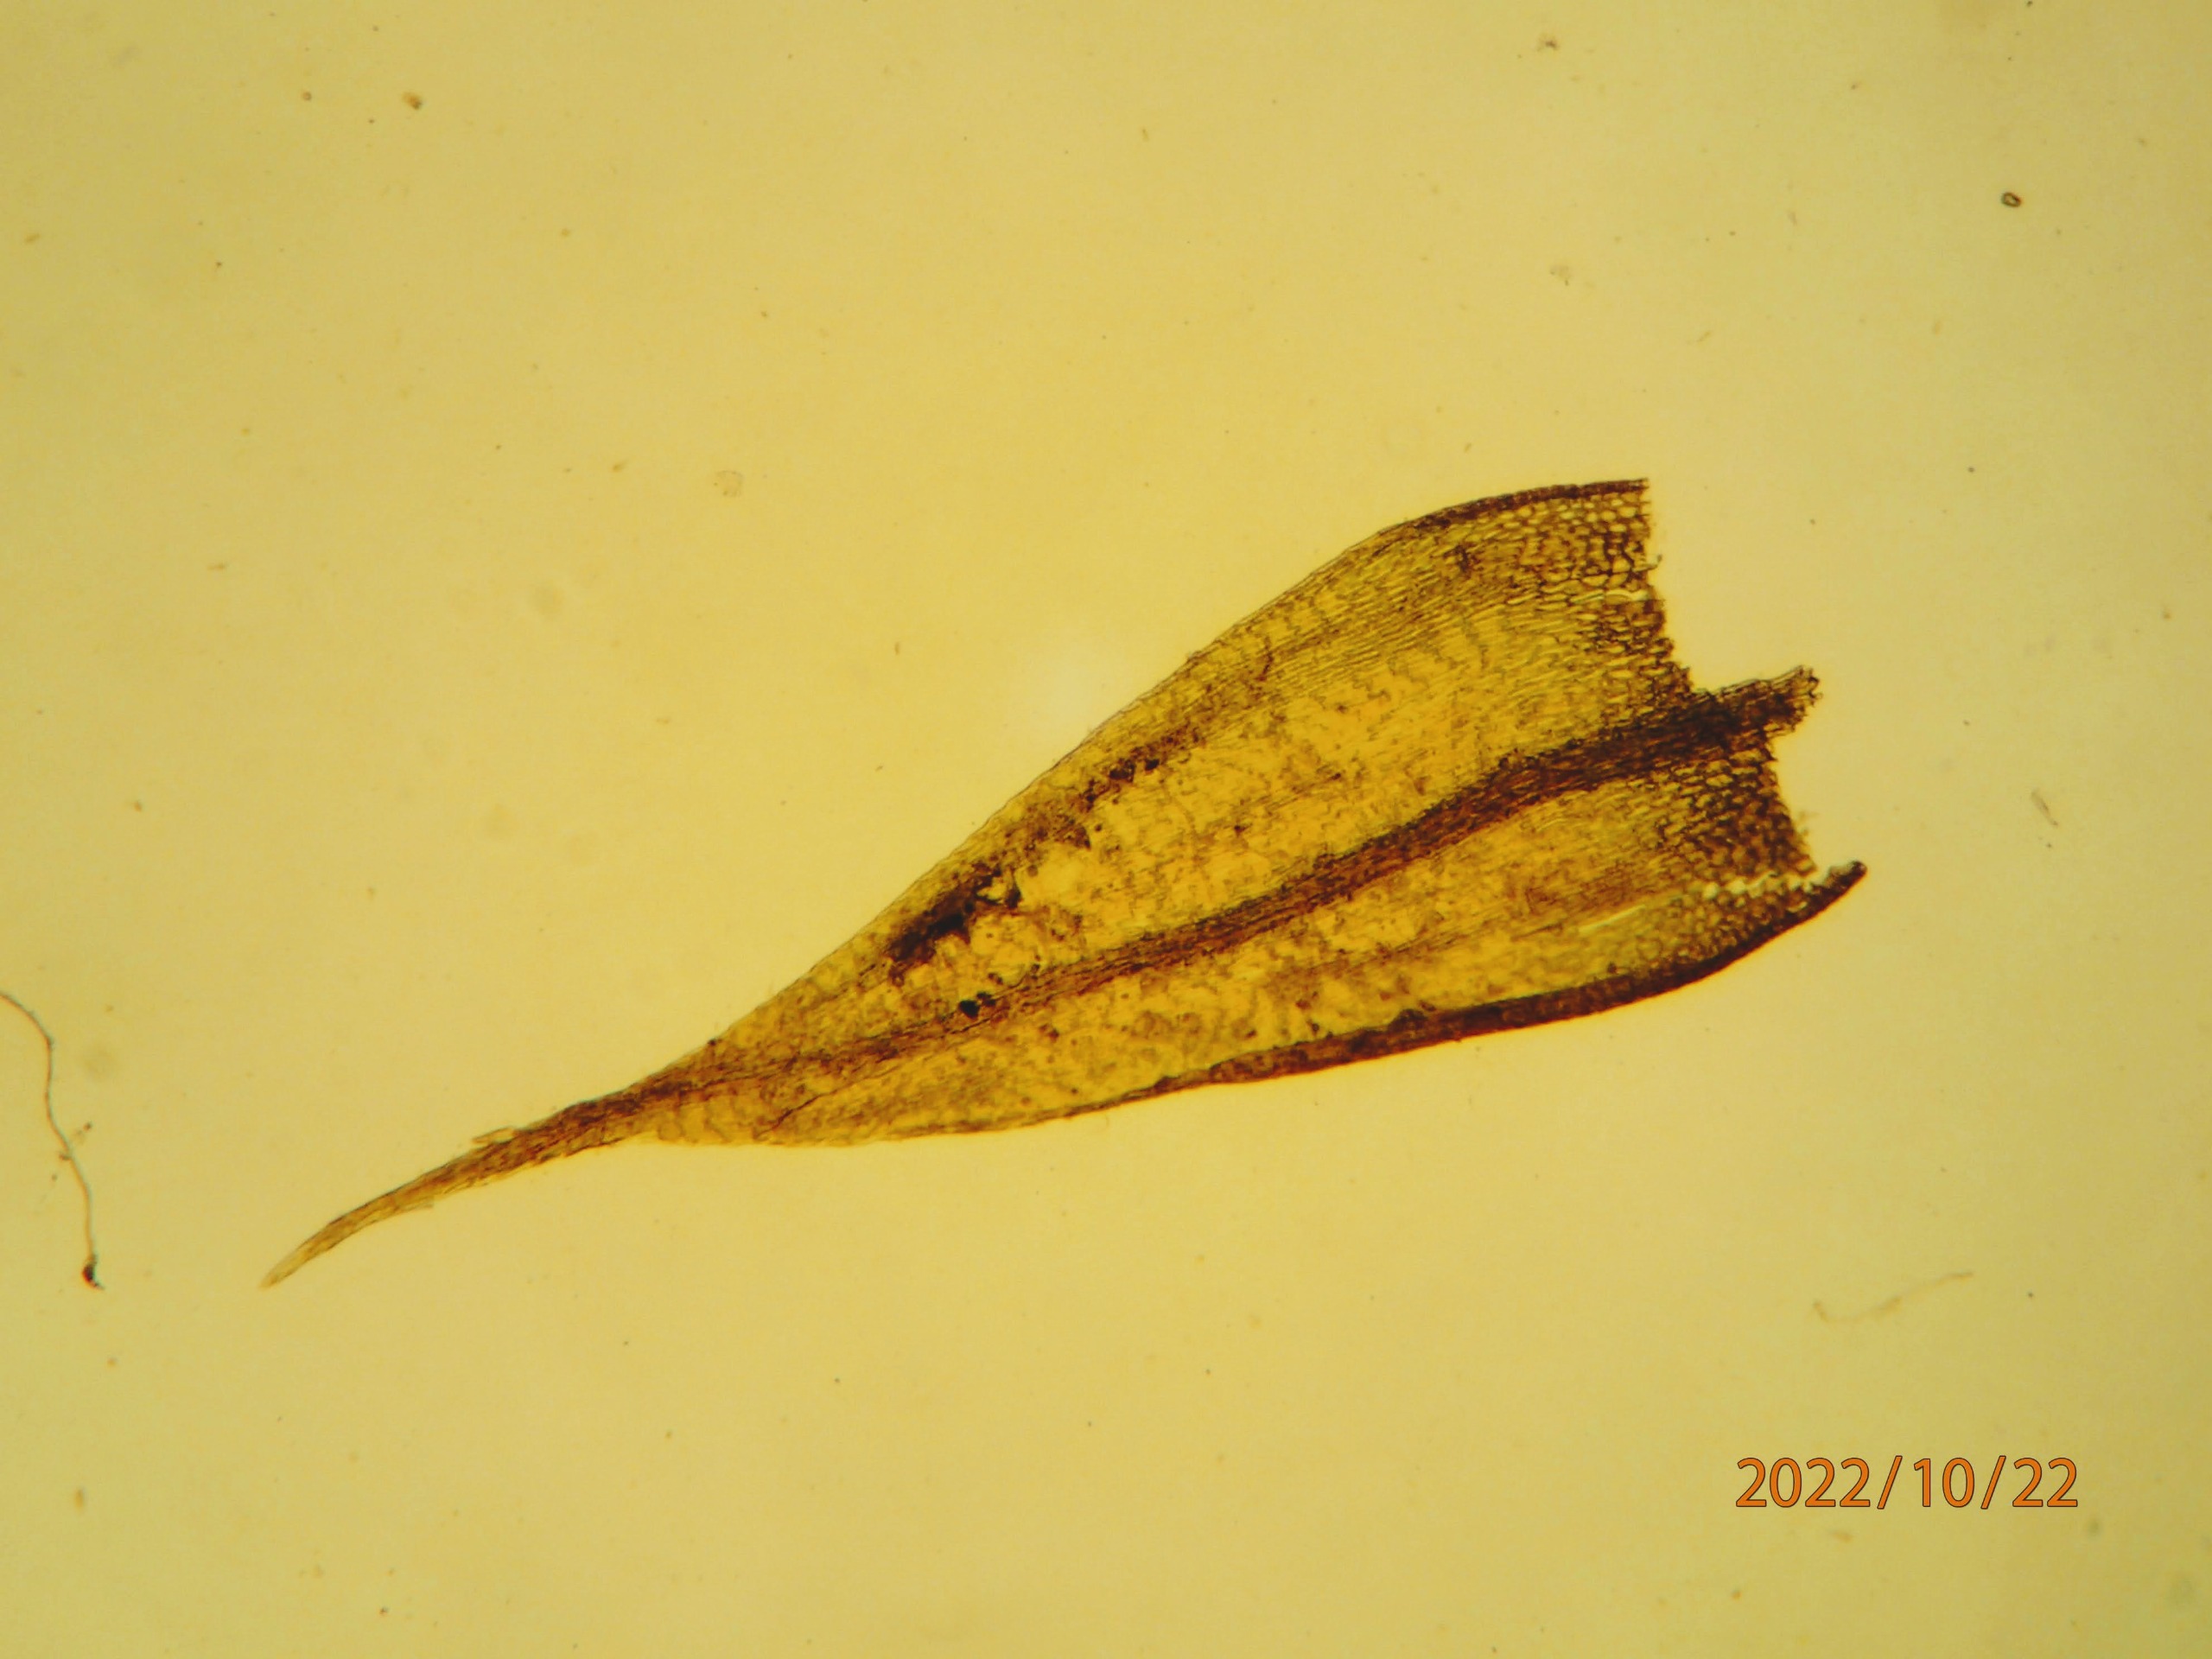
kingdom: Plantae
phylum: Bryophyta
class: Bryopsida
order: Hypnales
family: Brachytheciaceae
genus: Sciuro-hypnum
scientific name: Sciuro-hypnum populeum
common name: Park-kortkapsel
